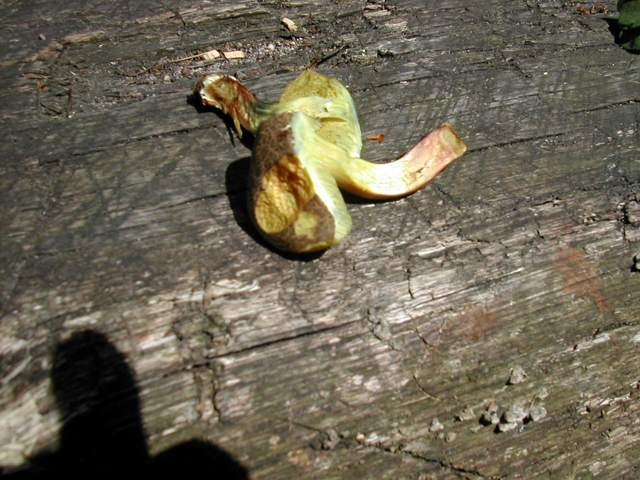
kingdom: Fungi
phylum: Basidiomycota
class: Agaricomycetes
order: Boletales
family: Boletaceae
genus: Xerocomellus
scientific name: Xerocomellus cisalpinus
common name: finsprukken rørhat
